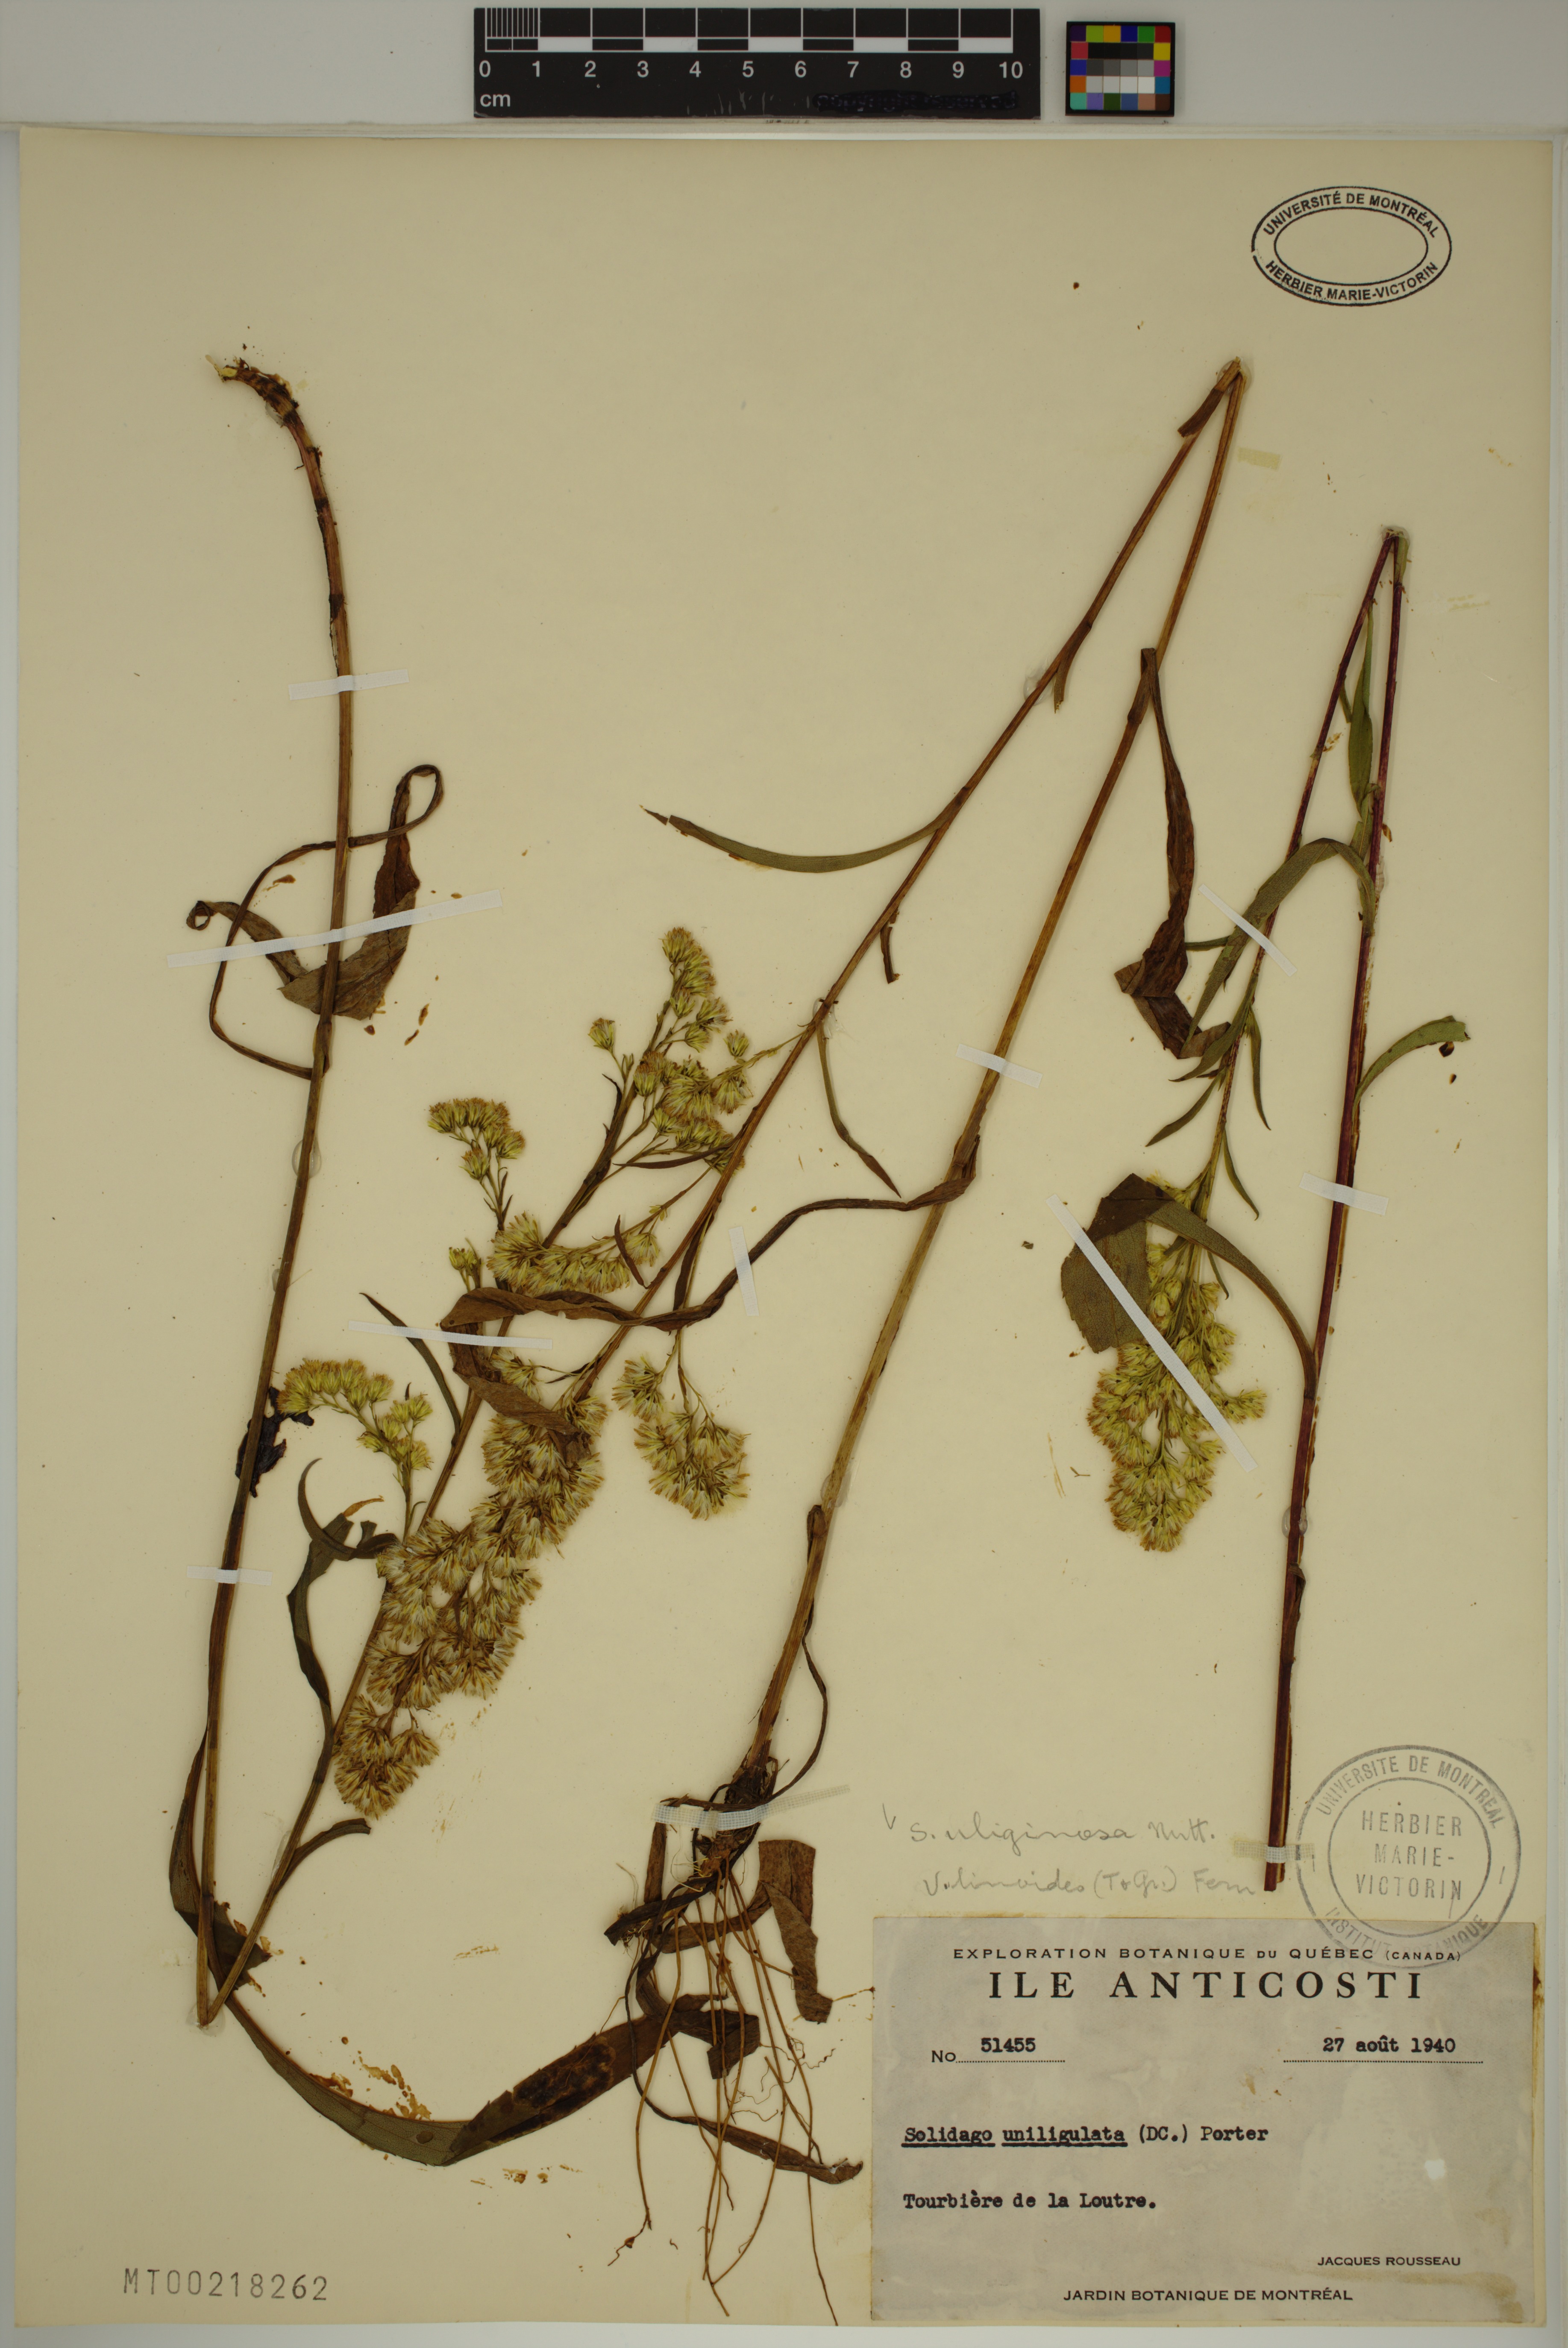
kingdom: Plantae
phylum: Tracheophyta
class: Magnoliopsida
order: Asterales
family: Asteraceae
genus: Solidago
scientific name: Solidago uliginosa
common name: Bog goldenrod
